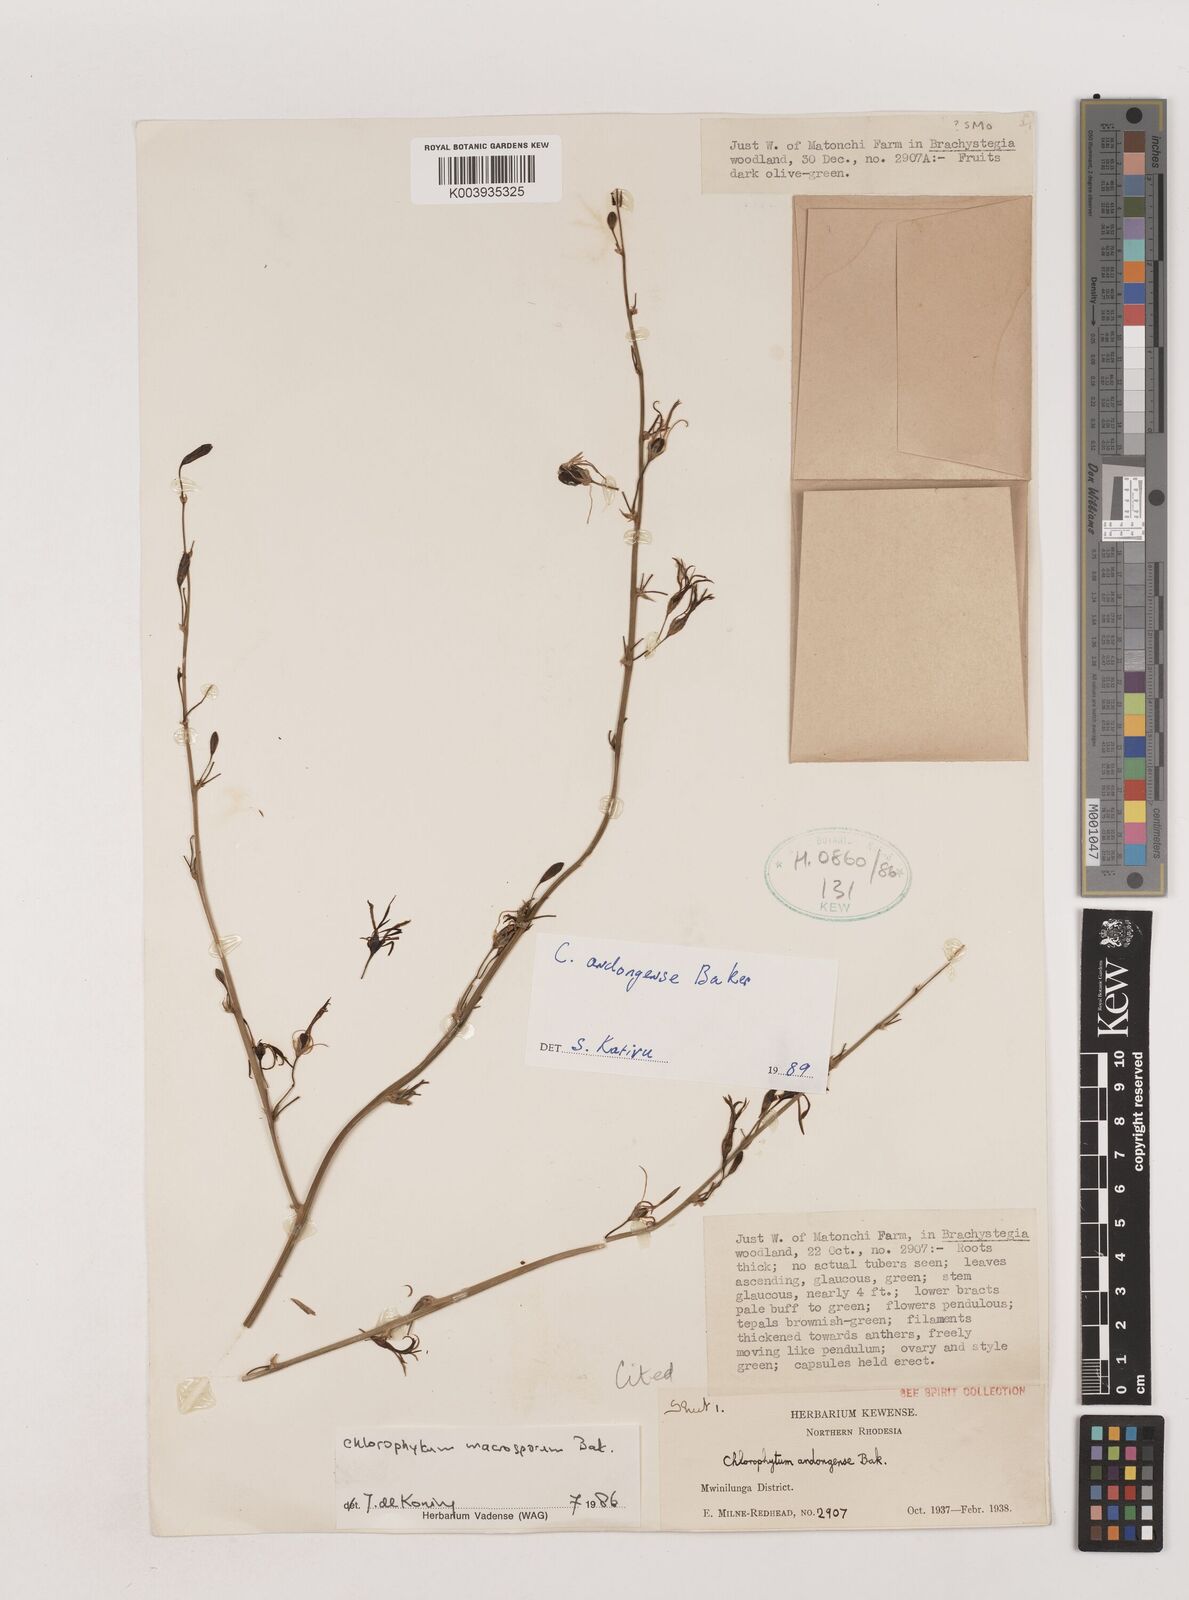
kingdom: Plantae
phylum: Tracheophyta
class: Liliopsida
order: Asparagales
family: Asparagaceae
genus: Chlorophytum
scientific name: Chlorophytum andongense
